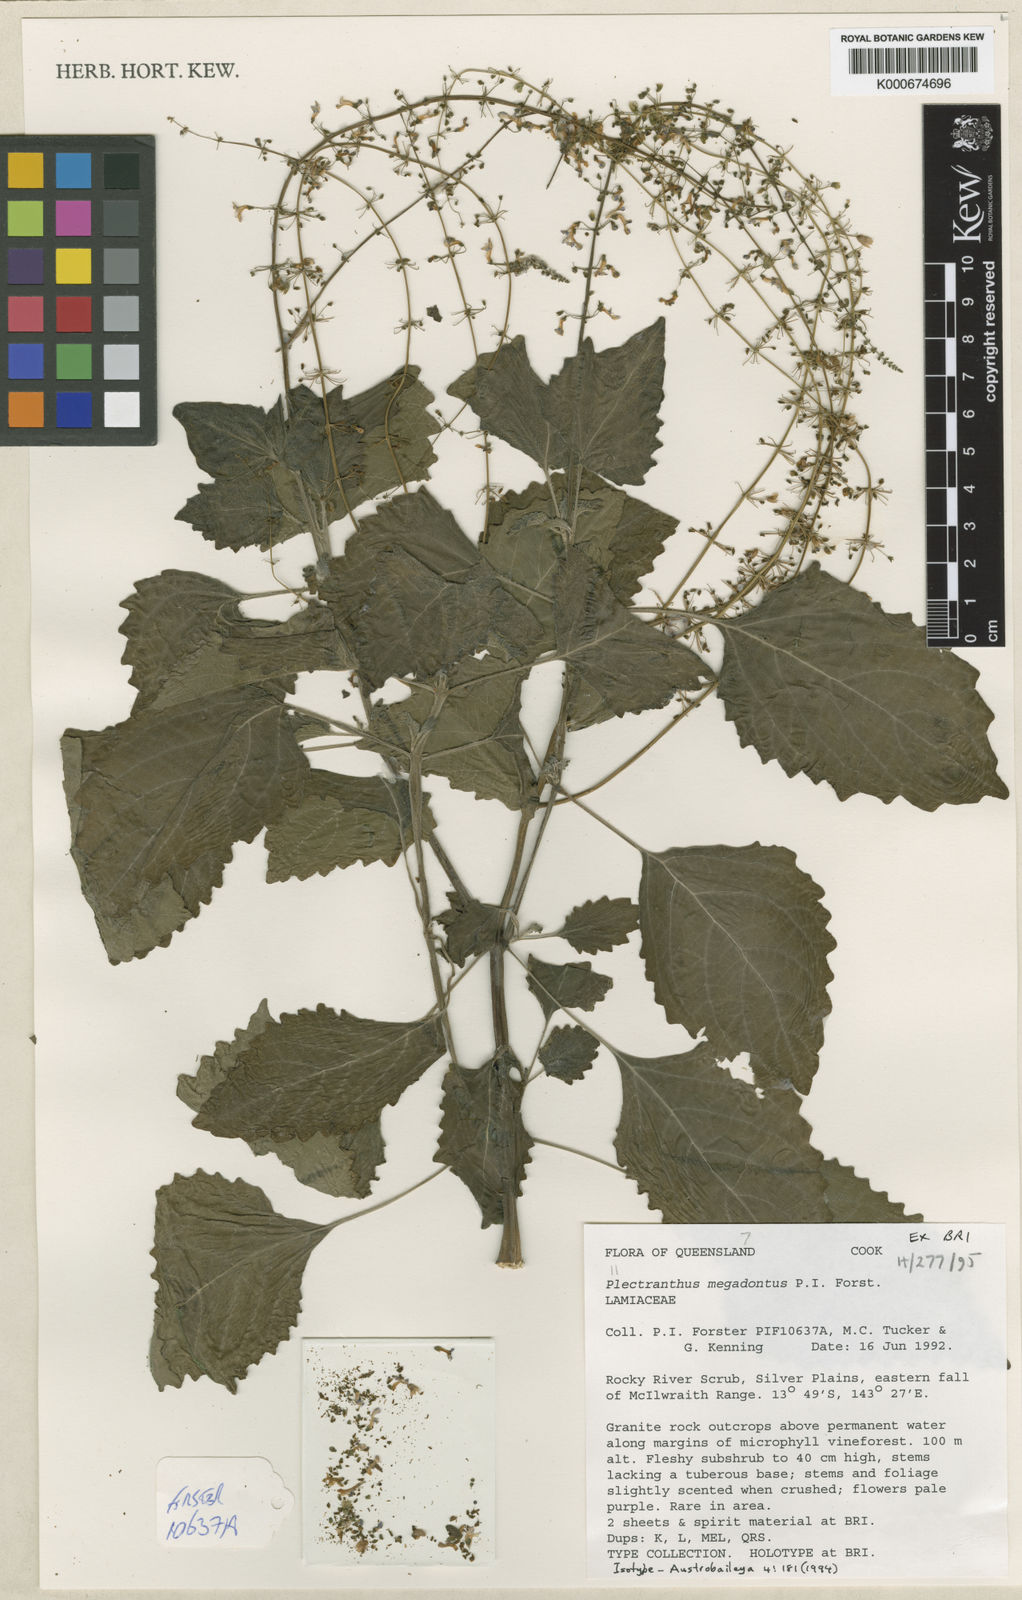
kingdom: Plantae
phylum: Tracheophyta
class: Magnoliopsida
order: Lamiales
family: Lamiaceae
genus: Coleus
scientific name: Coleus megadontus
